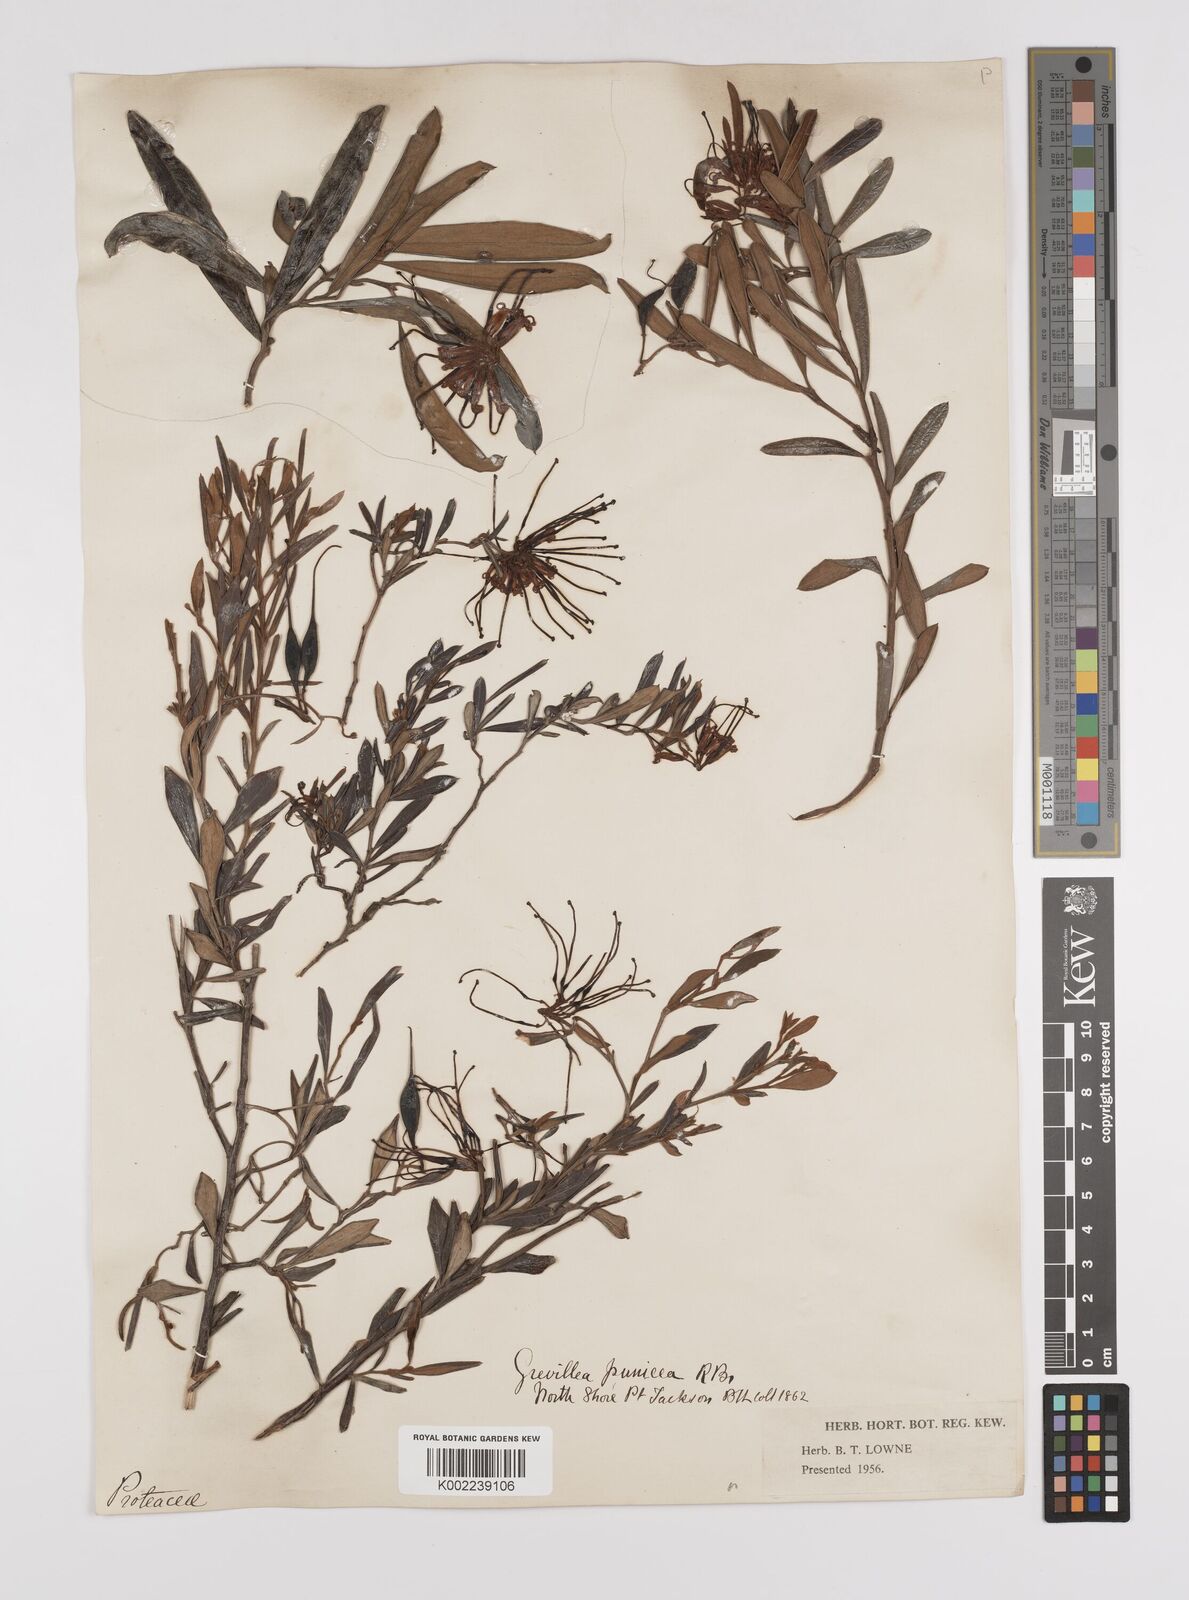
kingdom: Plantae
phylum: Tracheophyta
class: Magnoliopsida
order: Proteales
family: Proteaceae
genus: Grevillea
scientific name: Grevillea speciosa
